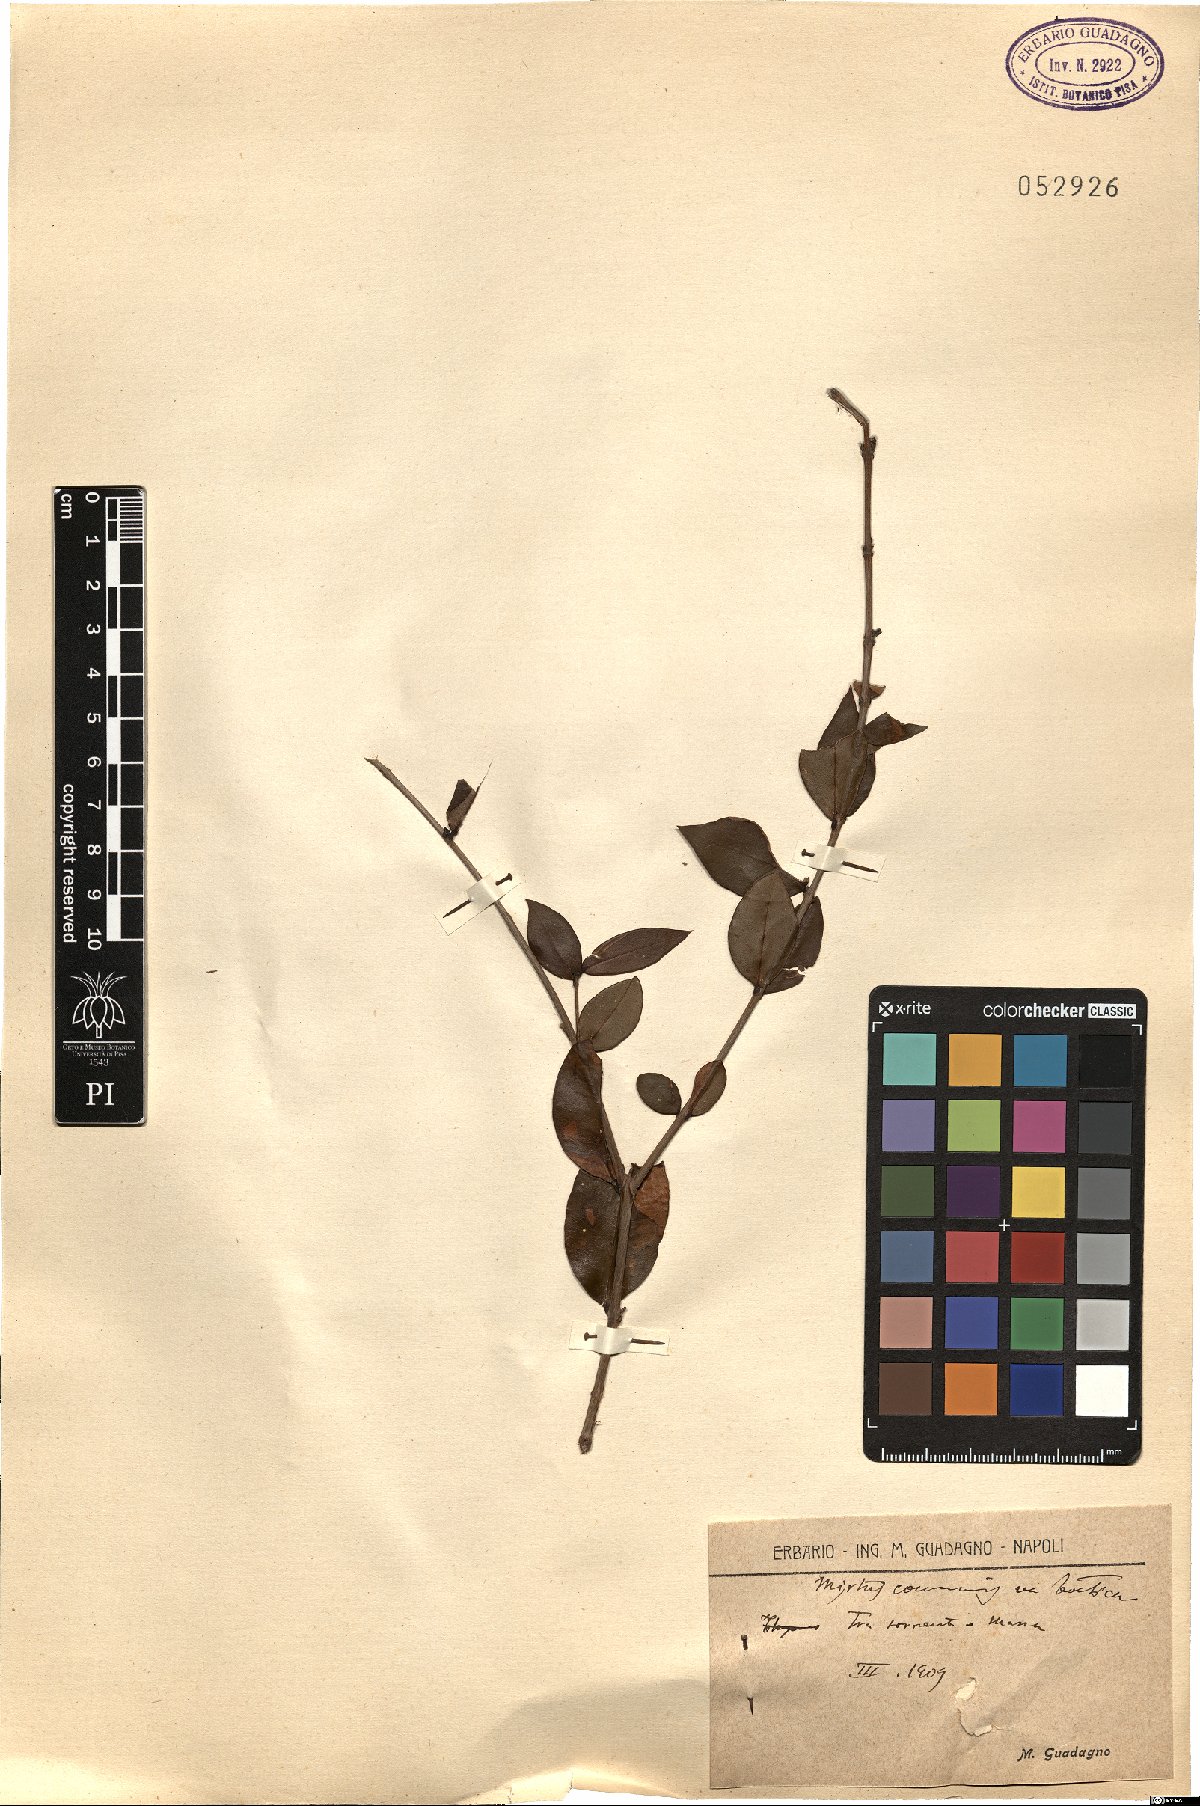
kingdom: Plantae
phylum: Tracheophyta
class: Magnoliopsida
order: Myrtales
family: Myrtaceae
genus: Myrtus
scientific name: Myrtus communis
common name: Myrtle
